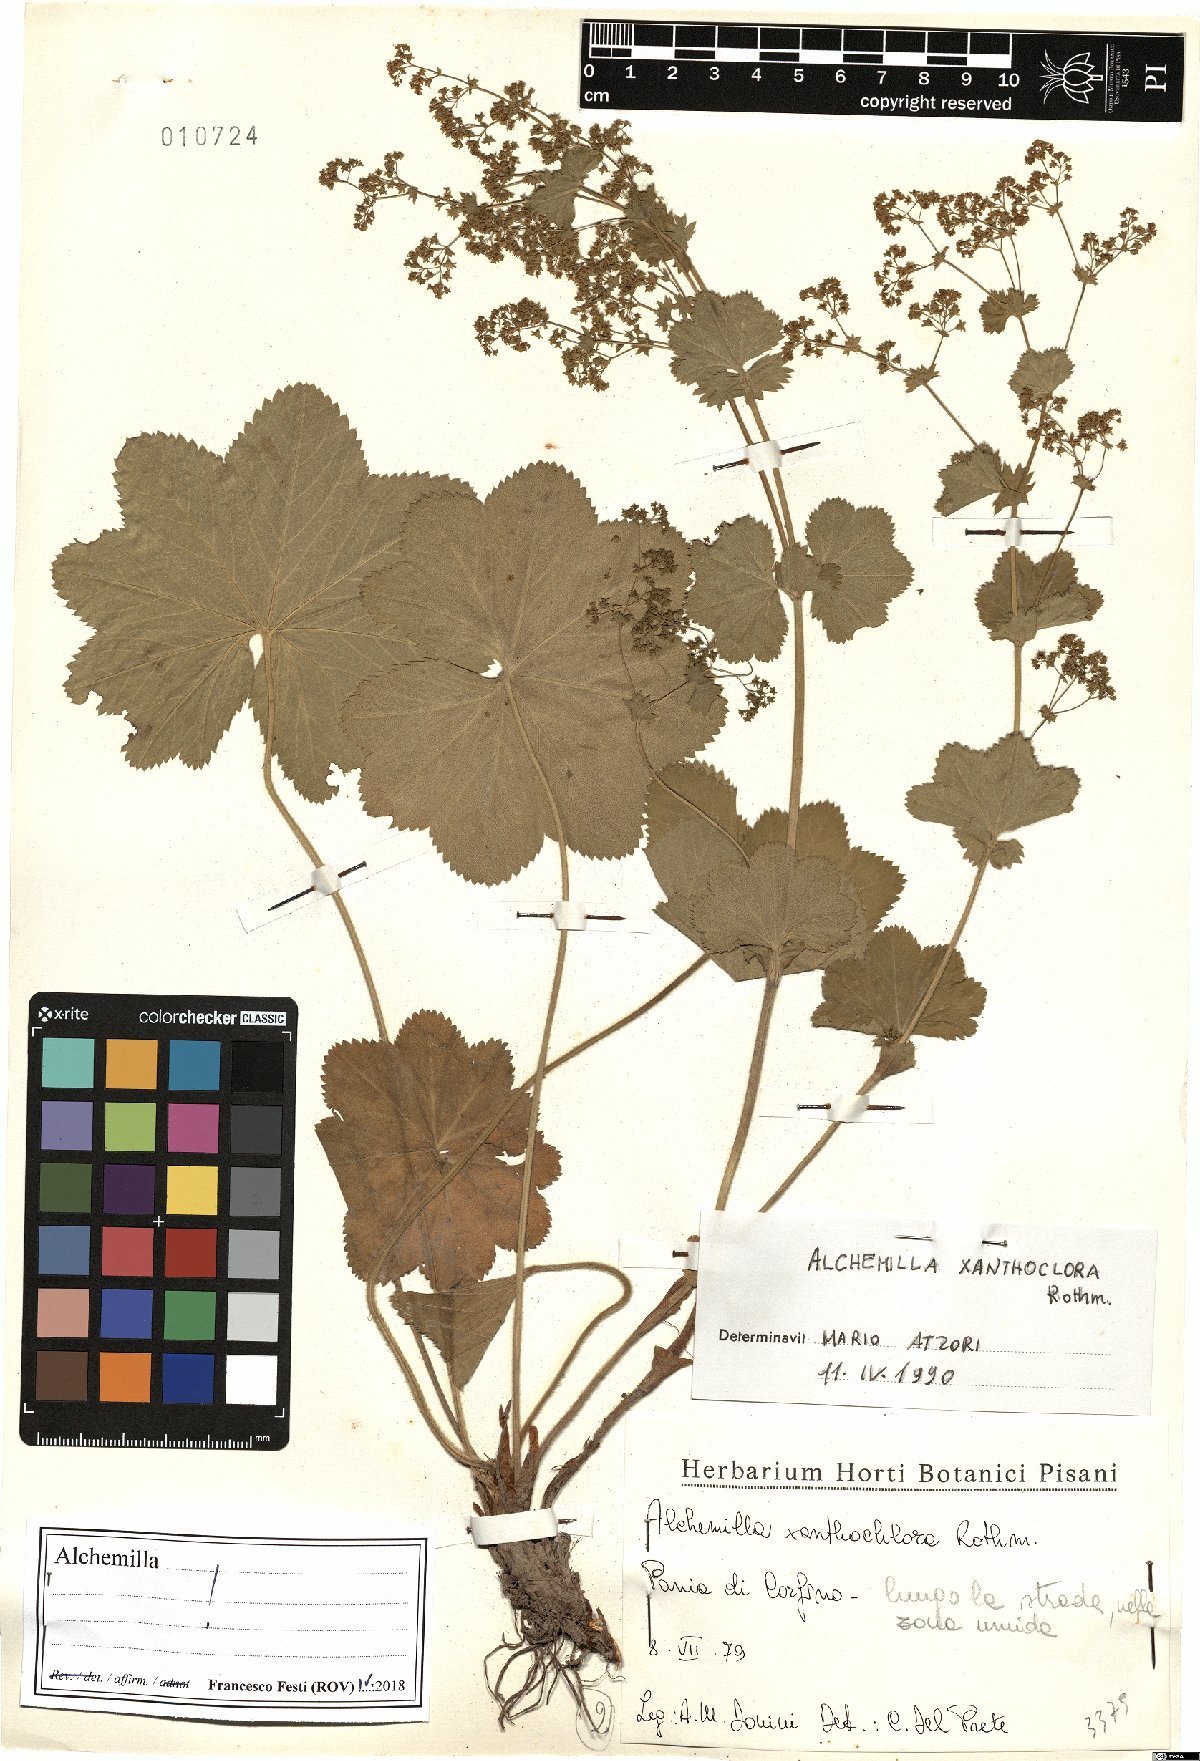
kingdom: Plantae
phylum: Tracheophyta
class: Magnoliopsida
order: Rosales
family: Rosaceae
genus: Alchemilla
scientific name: Alchemilla xanthochlora
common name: Intermediate lady's-mantle
